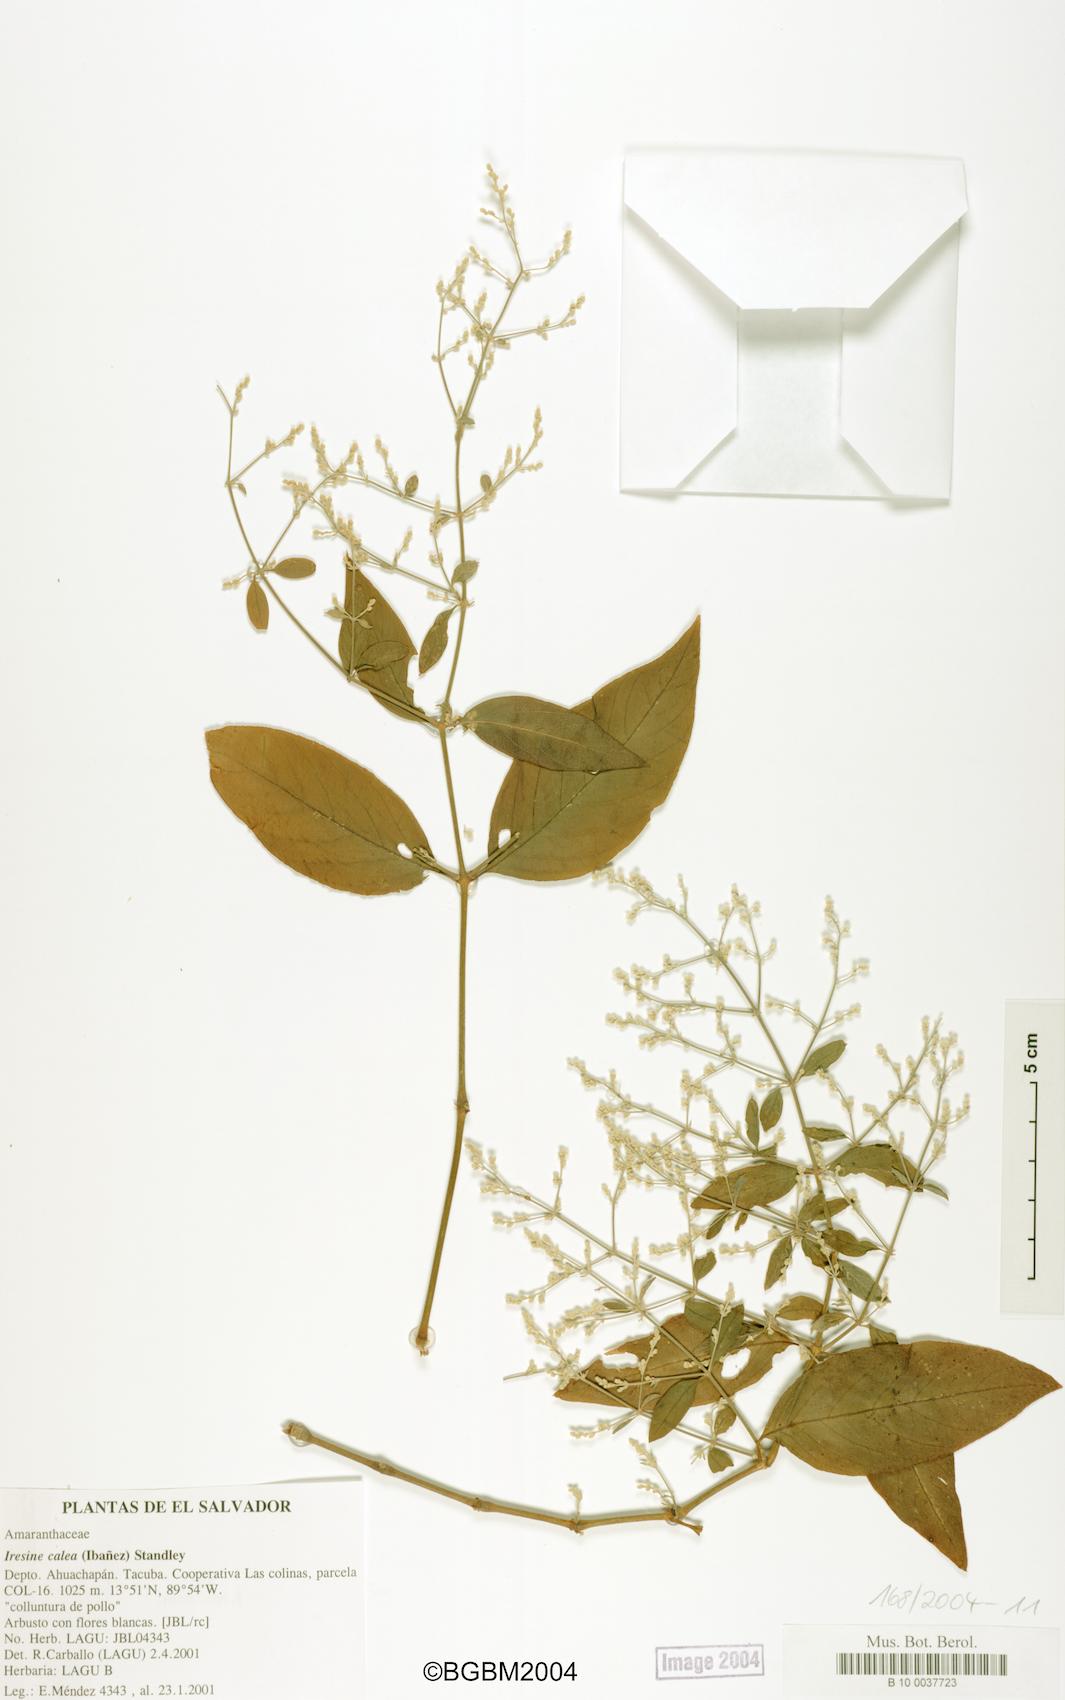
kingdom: Plantae
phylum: Tracheophyta
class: Magnoliopsida
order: Caryophyllales
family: Amaranthaceae
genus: Iresine
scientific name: Iresine latifolia
